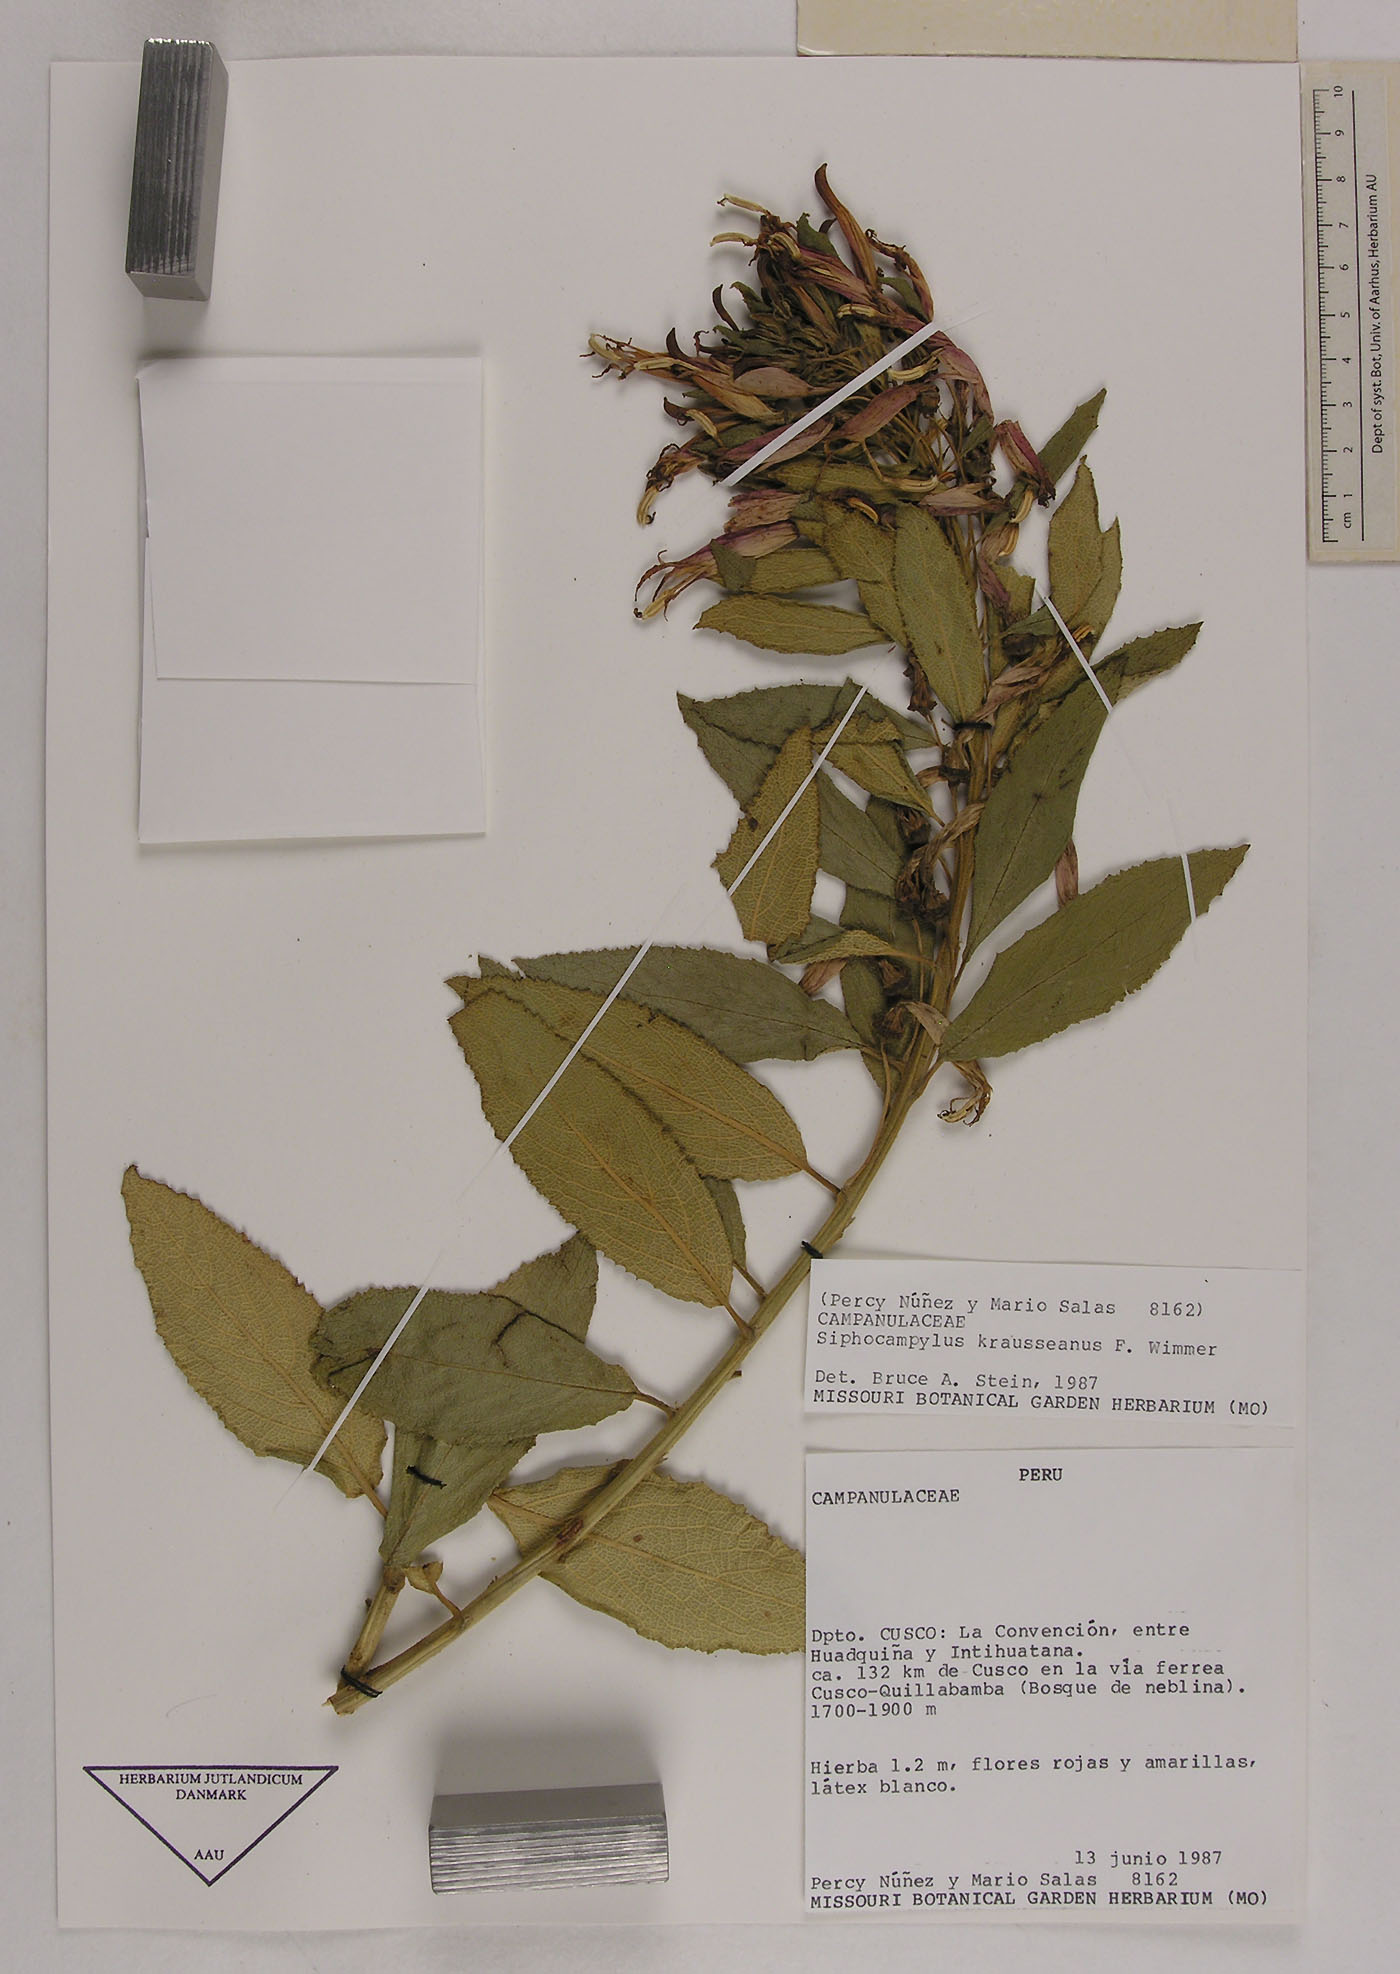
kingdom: Plantae
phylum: Tracheophyta
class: Magnoliopsida
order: Asterales
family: Campanulaceae
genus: Siphocampylus
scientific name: Siphocampylus krauseanus
